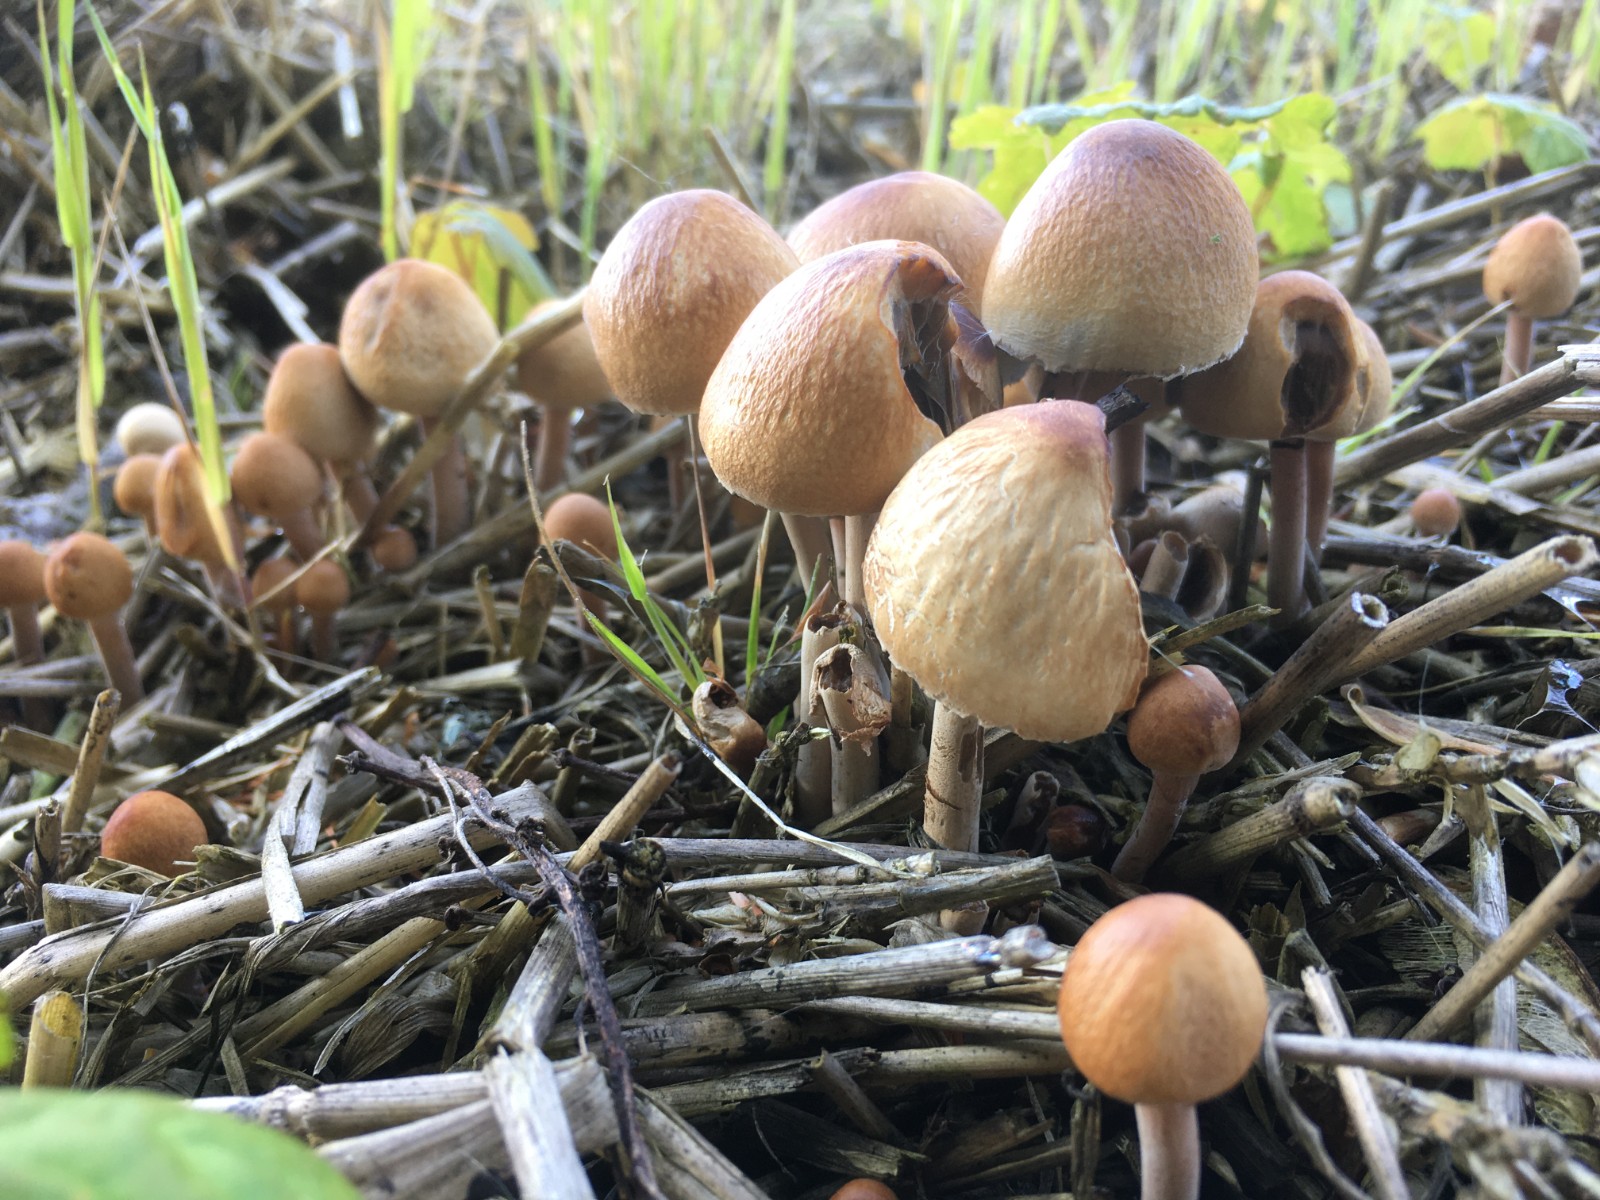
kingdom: Fungi
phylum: Basidiomycota
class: Agaricomycetes
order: Agaricales
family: Bolbitiaceae
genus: Panaeolus
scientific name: Panaeolus papilionaceus
